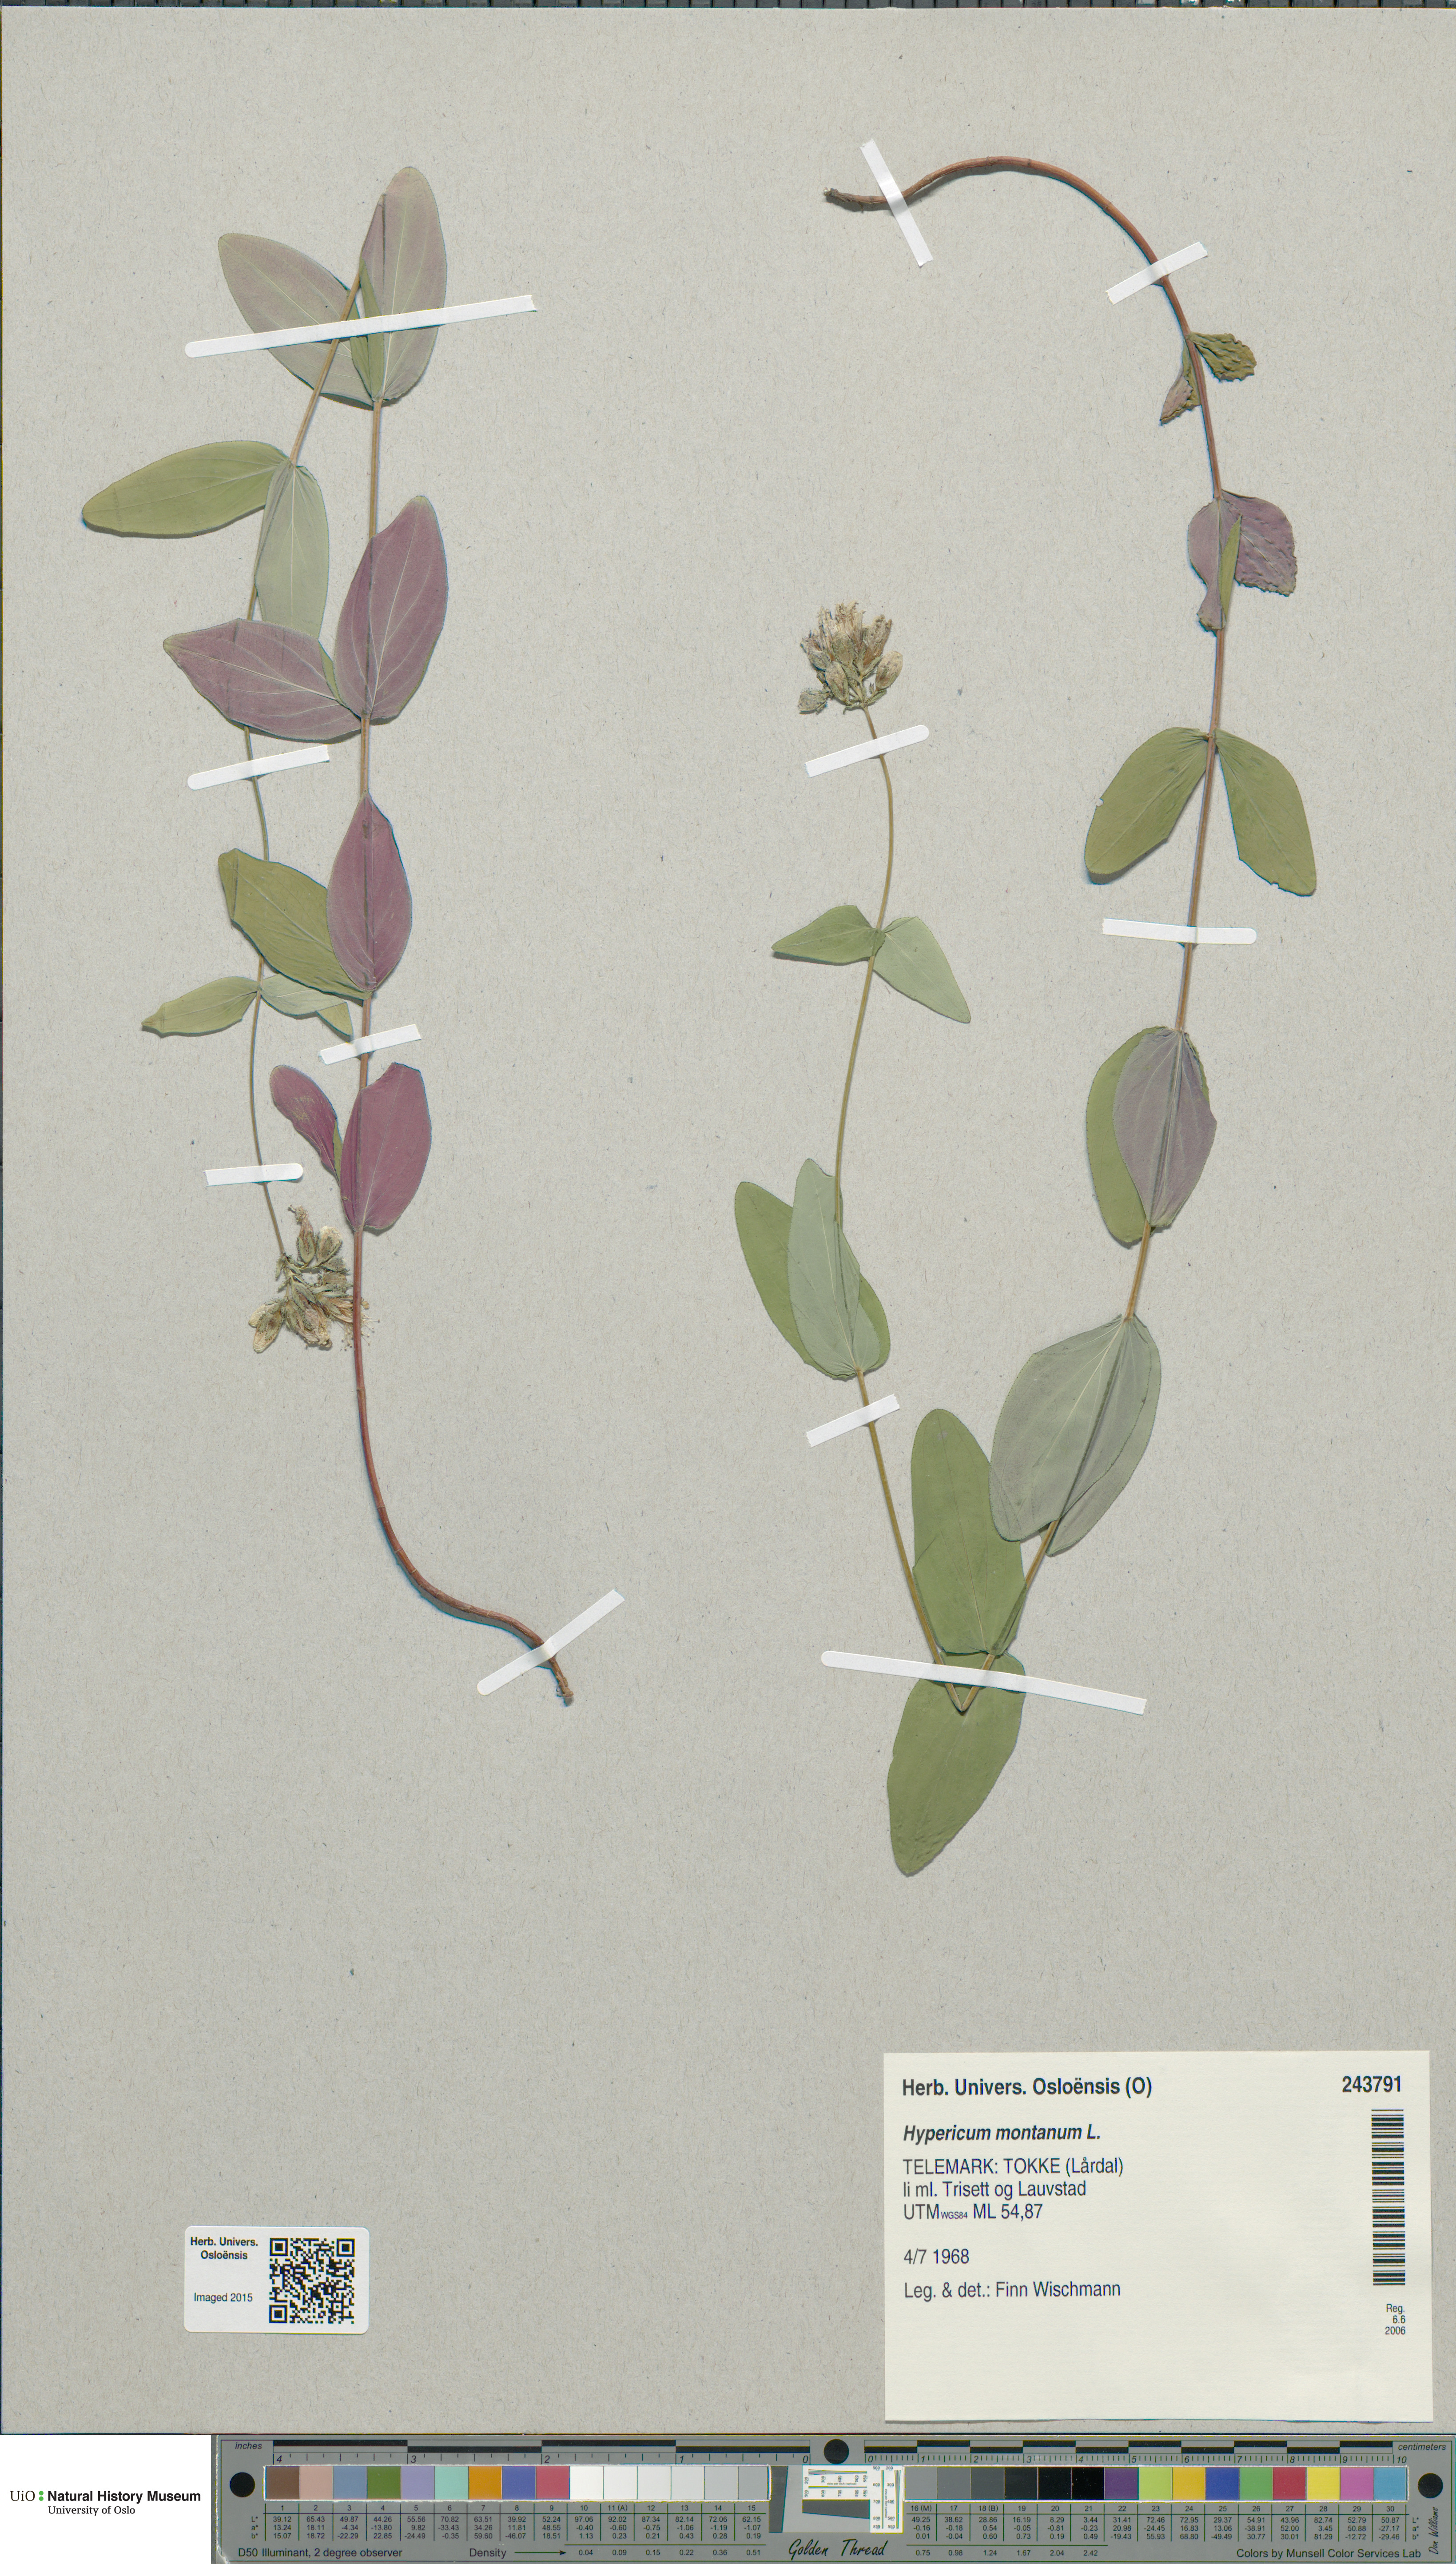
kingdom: Plantae
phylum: Tracheophyta
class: Magnoliopsida
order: Malpighiales
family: Hypericaceae
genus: Hypericum
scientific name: Hypericum montanum
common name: Pale st. john's-wort
